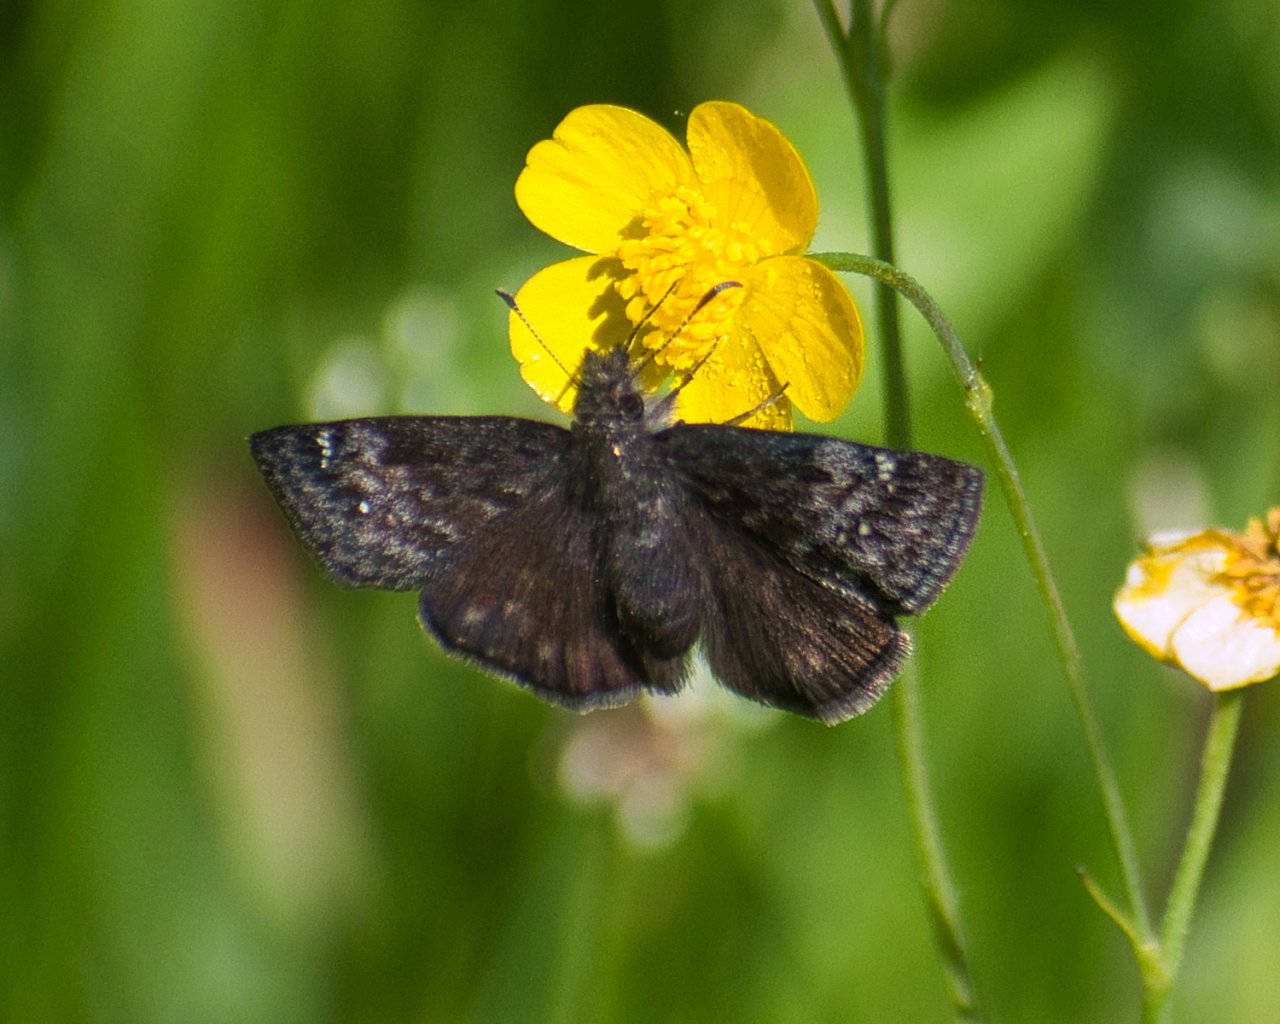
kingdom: Animalia
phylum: Arthropoda
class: Insecta
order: Lepidoptera
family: Hesperiidae
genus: Gesta
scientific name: Gesta
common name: Persius Duskywing
